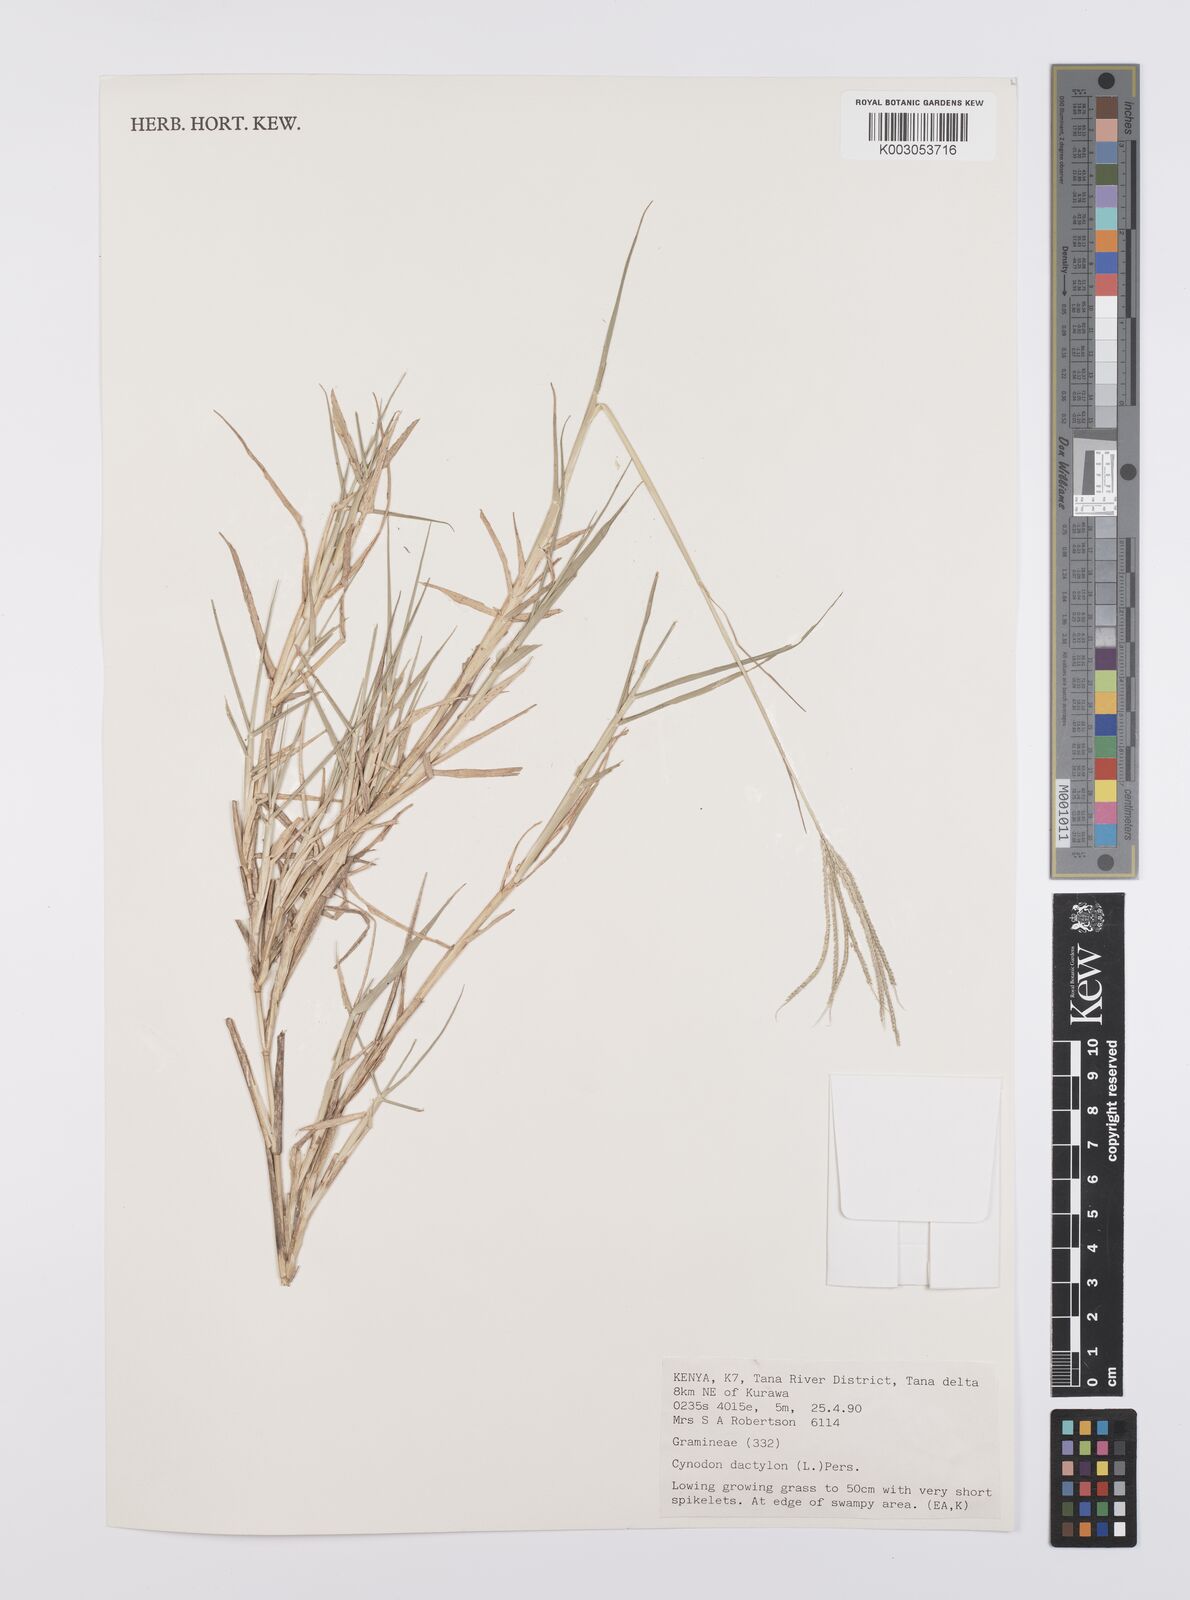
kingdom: Plantae
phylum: Tracheophyta
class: Liliopsida
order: Poales
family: Poaceae
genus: Cynodon
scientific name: Cynodon dactylon
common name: Bermuda grass
